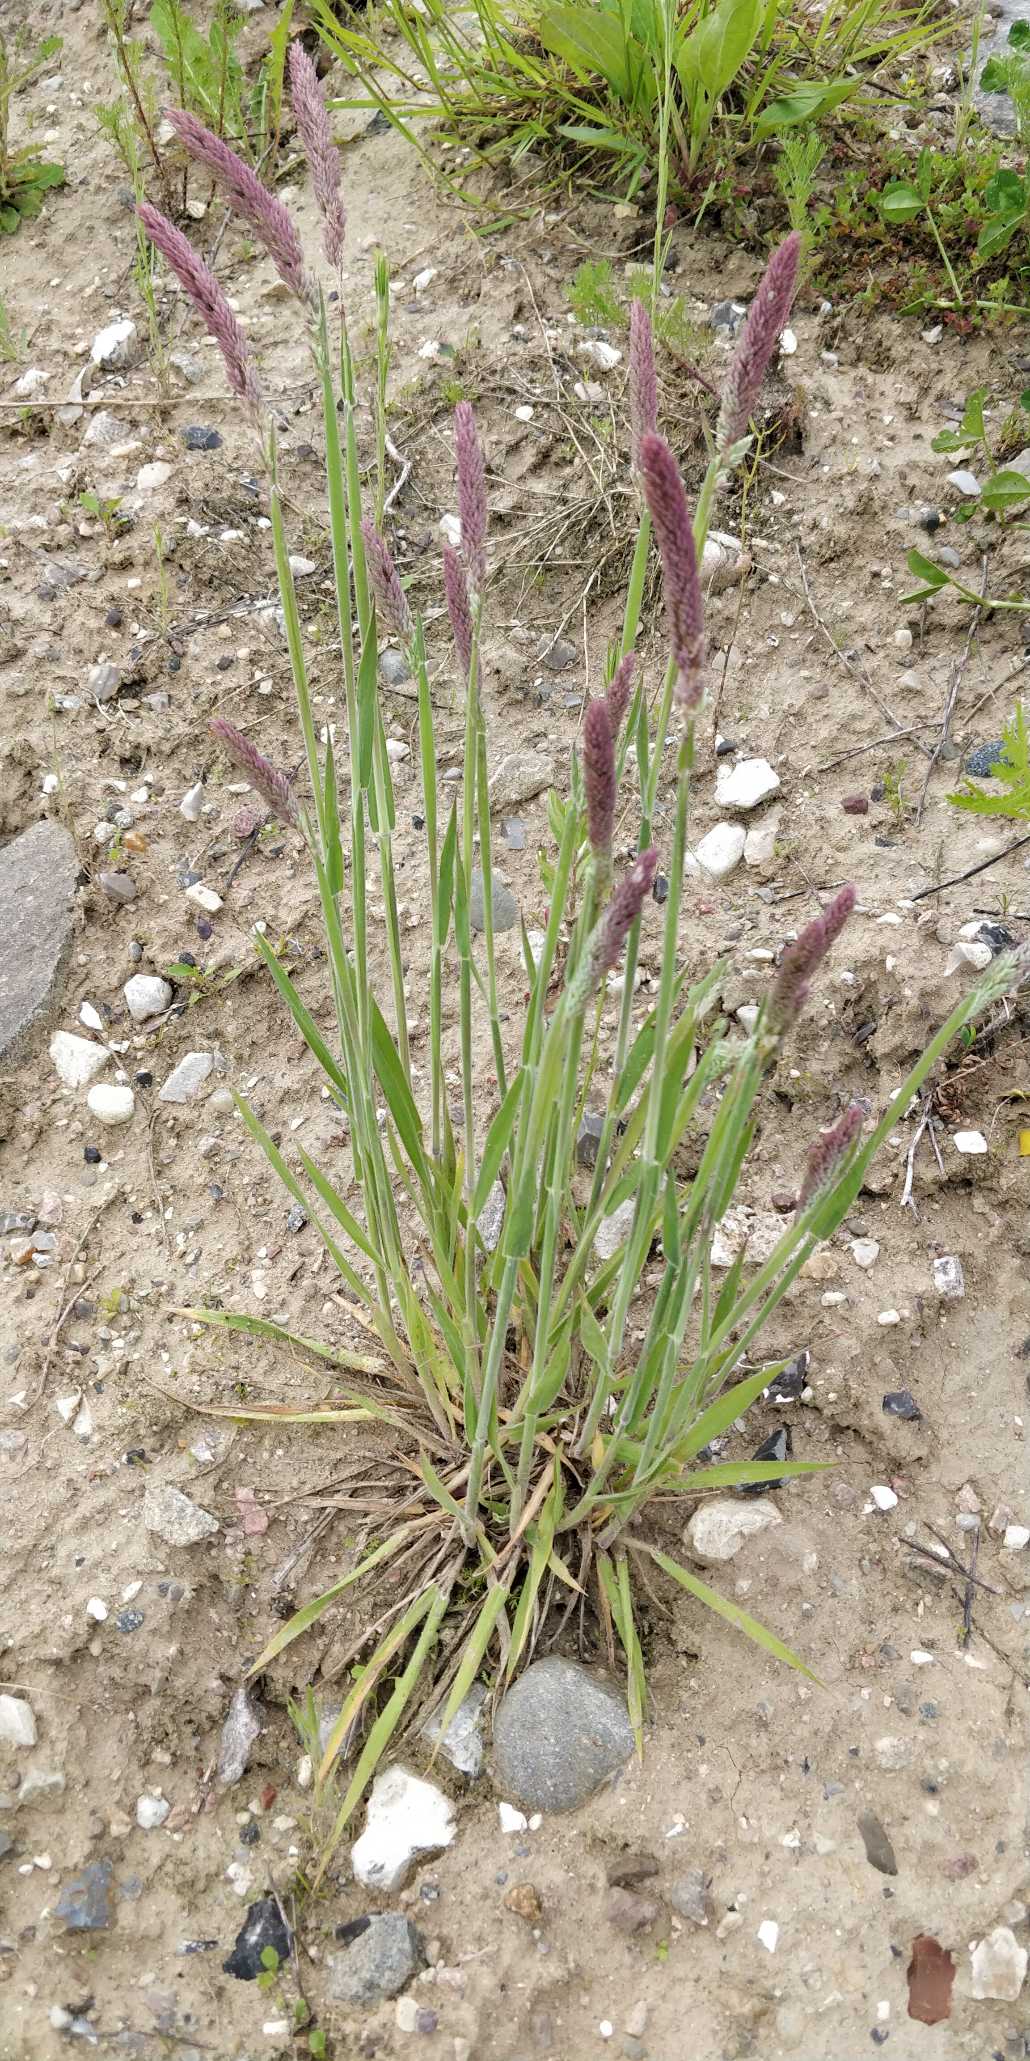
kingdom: Plantae
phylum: Tracheophyta
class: Liliopsida
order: Poales
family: Poaceae
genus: Holcus
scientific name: Holcus lanatus
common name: Fløjlsgræs
